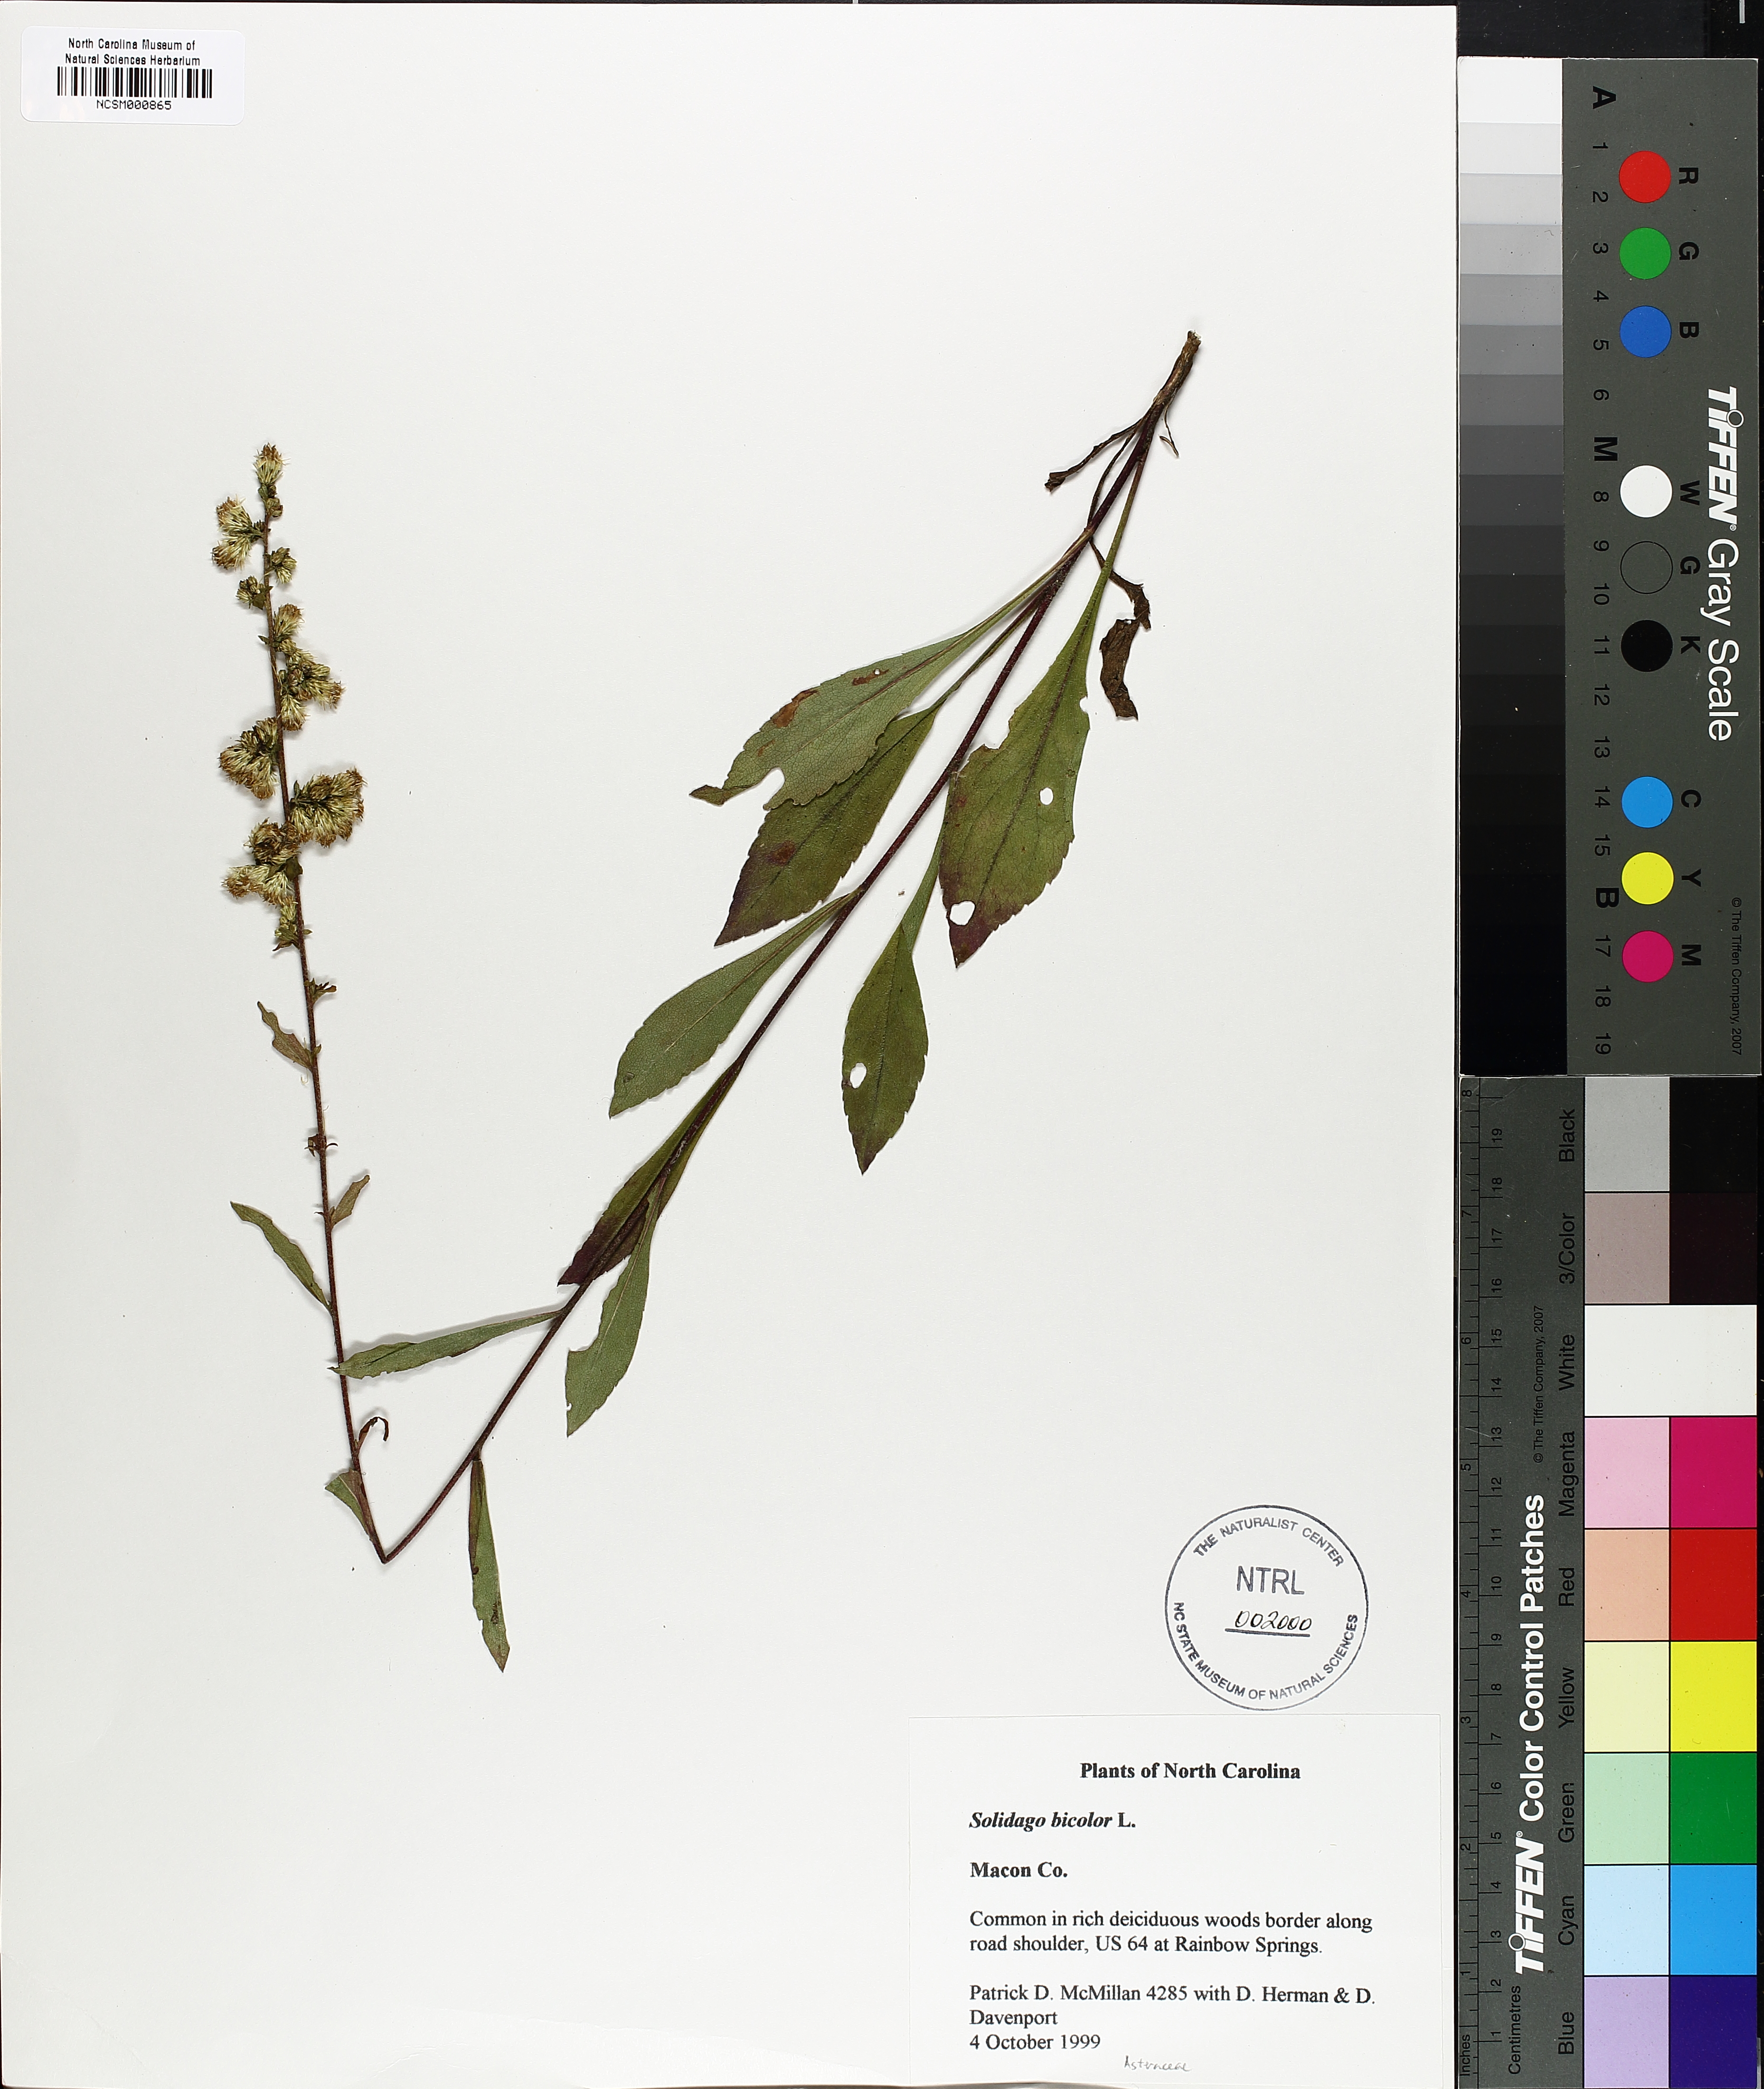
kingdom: Plantae
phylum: Tracheophyta
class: Magnoliopsida
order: Asterales
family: Asteraceae
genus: Solidago
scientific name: Solidago bicolor
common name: Silverrod
